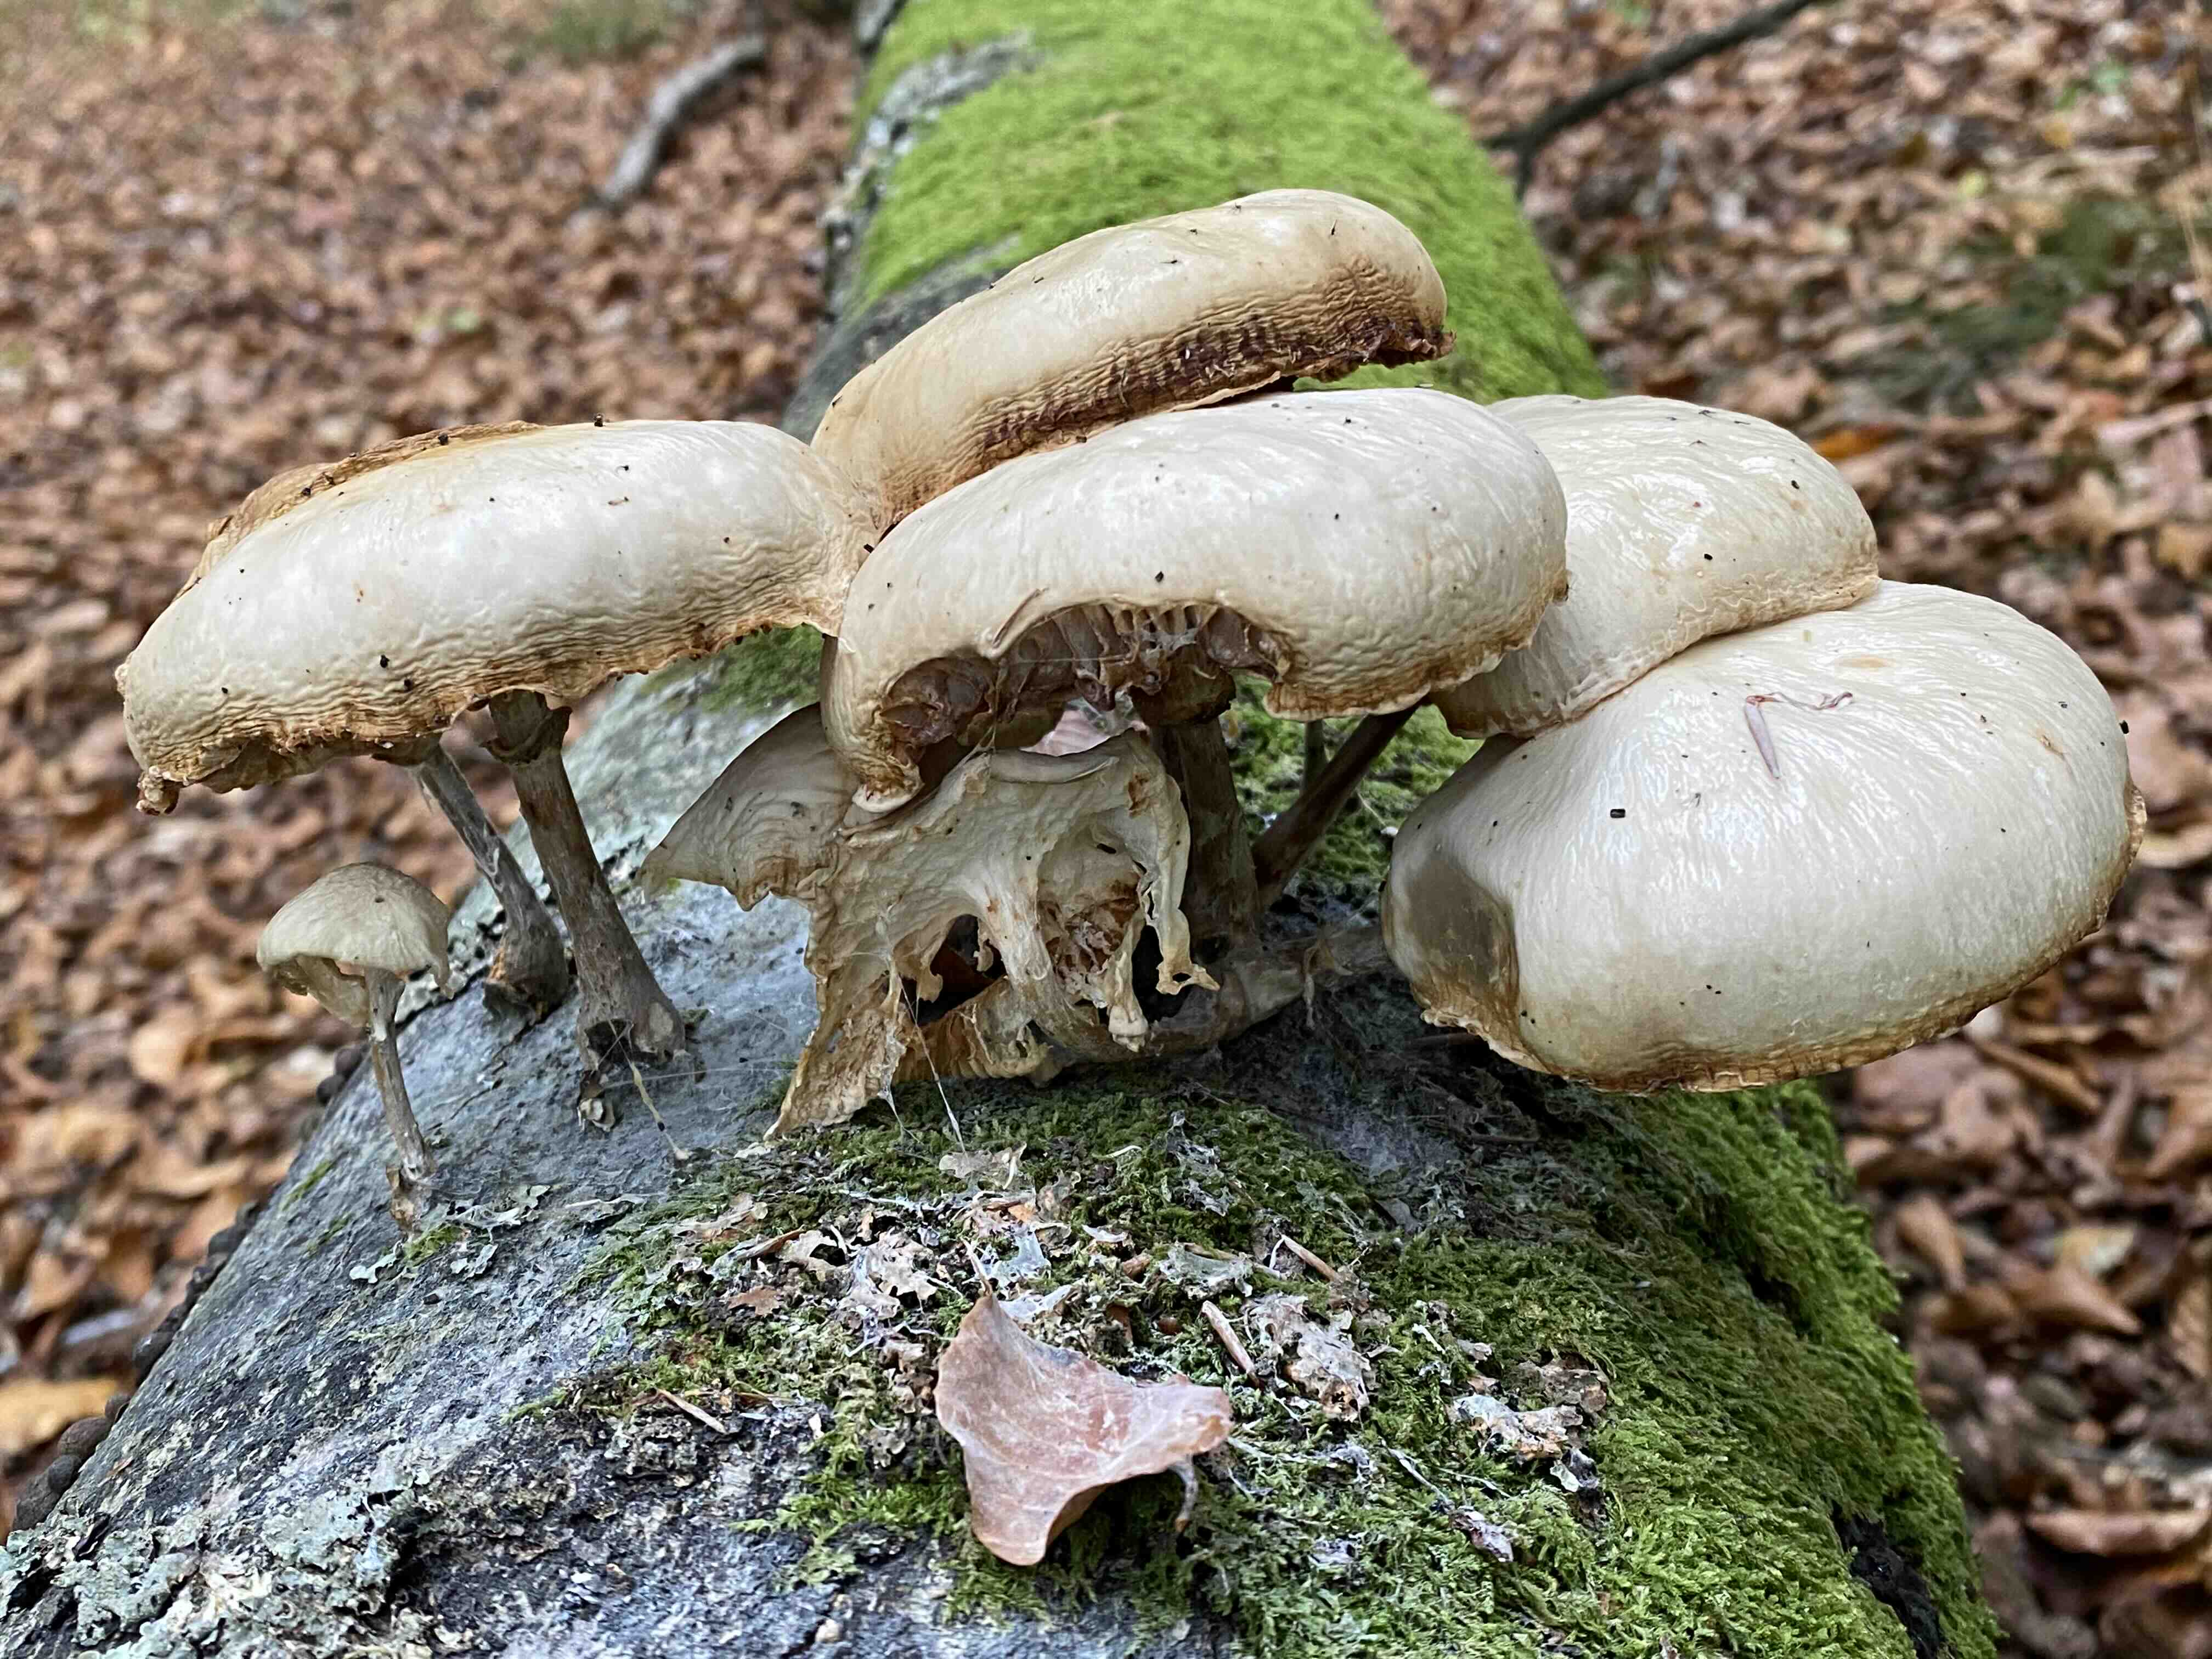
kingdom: Fungi
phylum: Basidiomycota
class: Agaricomycetes
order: Agaricales
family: Physalacriaceae
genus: Mucidula
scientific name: Mucidula mucida
